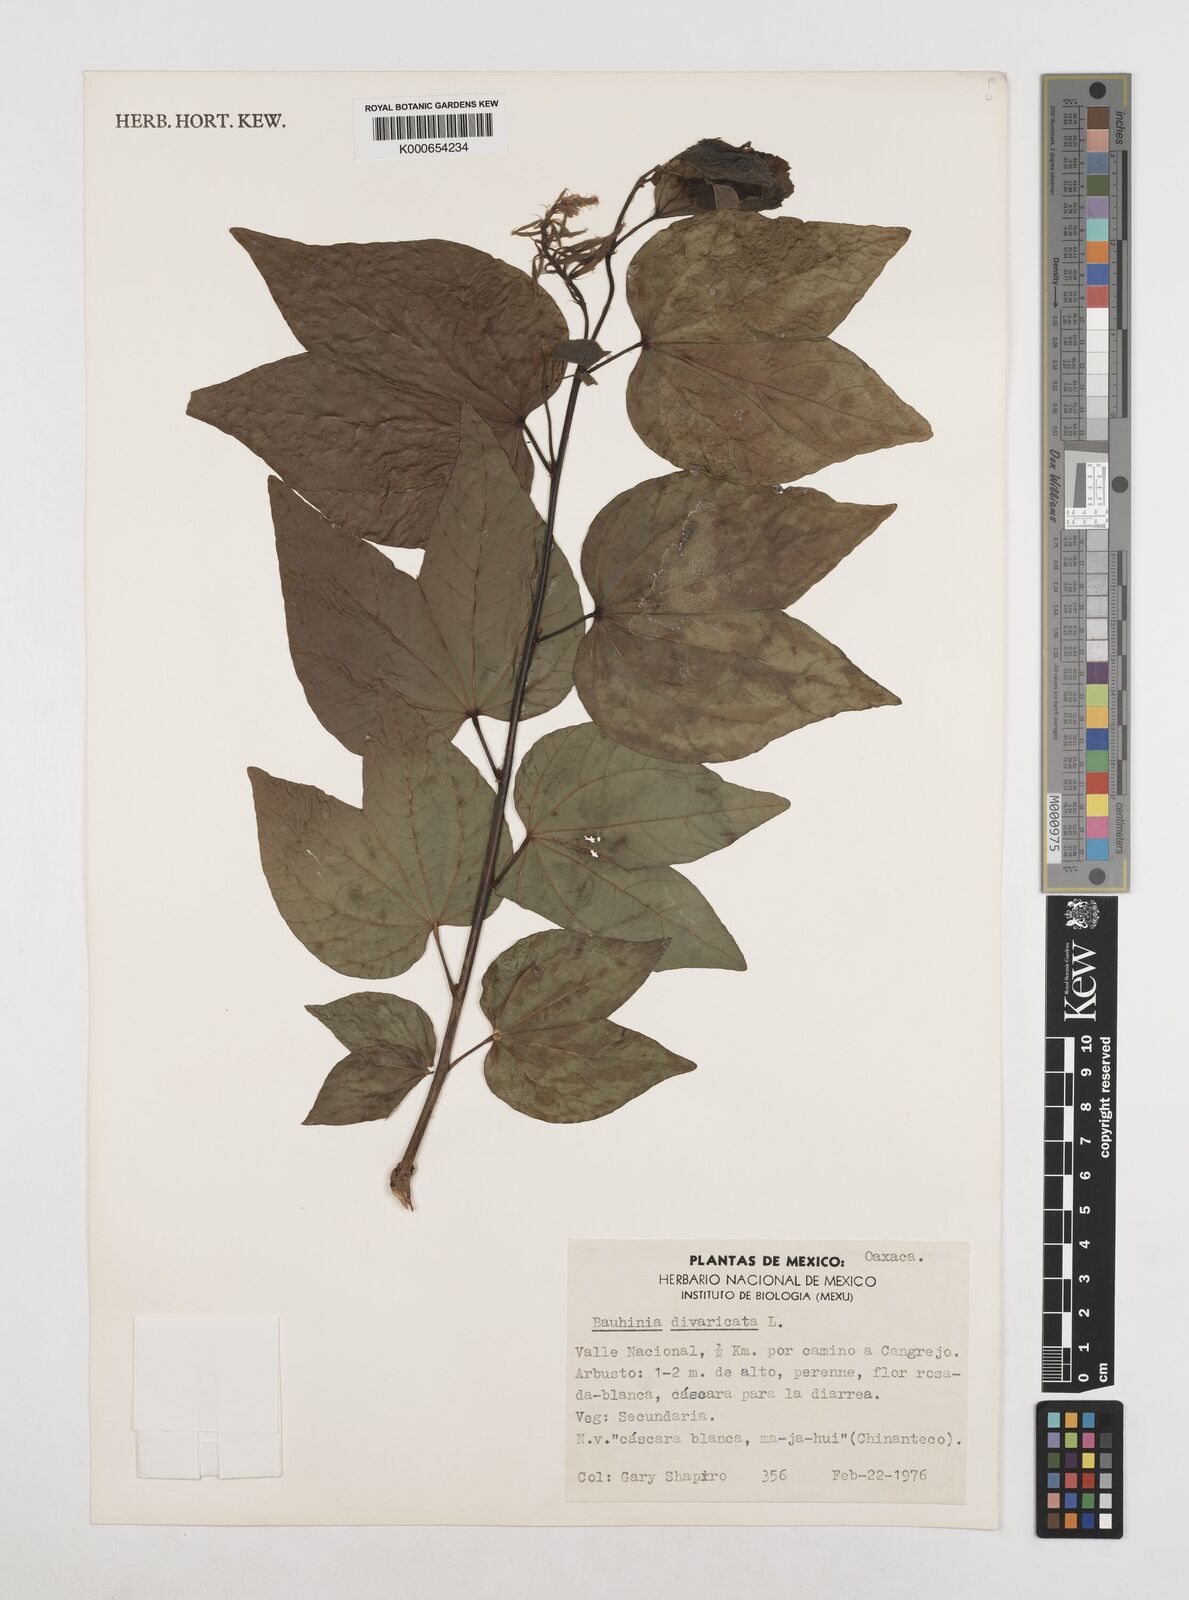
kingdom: Plantae
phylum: Tracheophyta
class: Magnoliopsida
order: Fabales
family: Fabaceae
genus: Bauhinia
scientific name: Bauhinia divaricata
